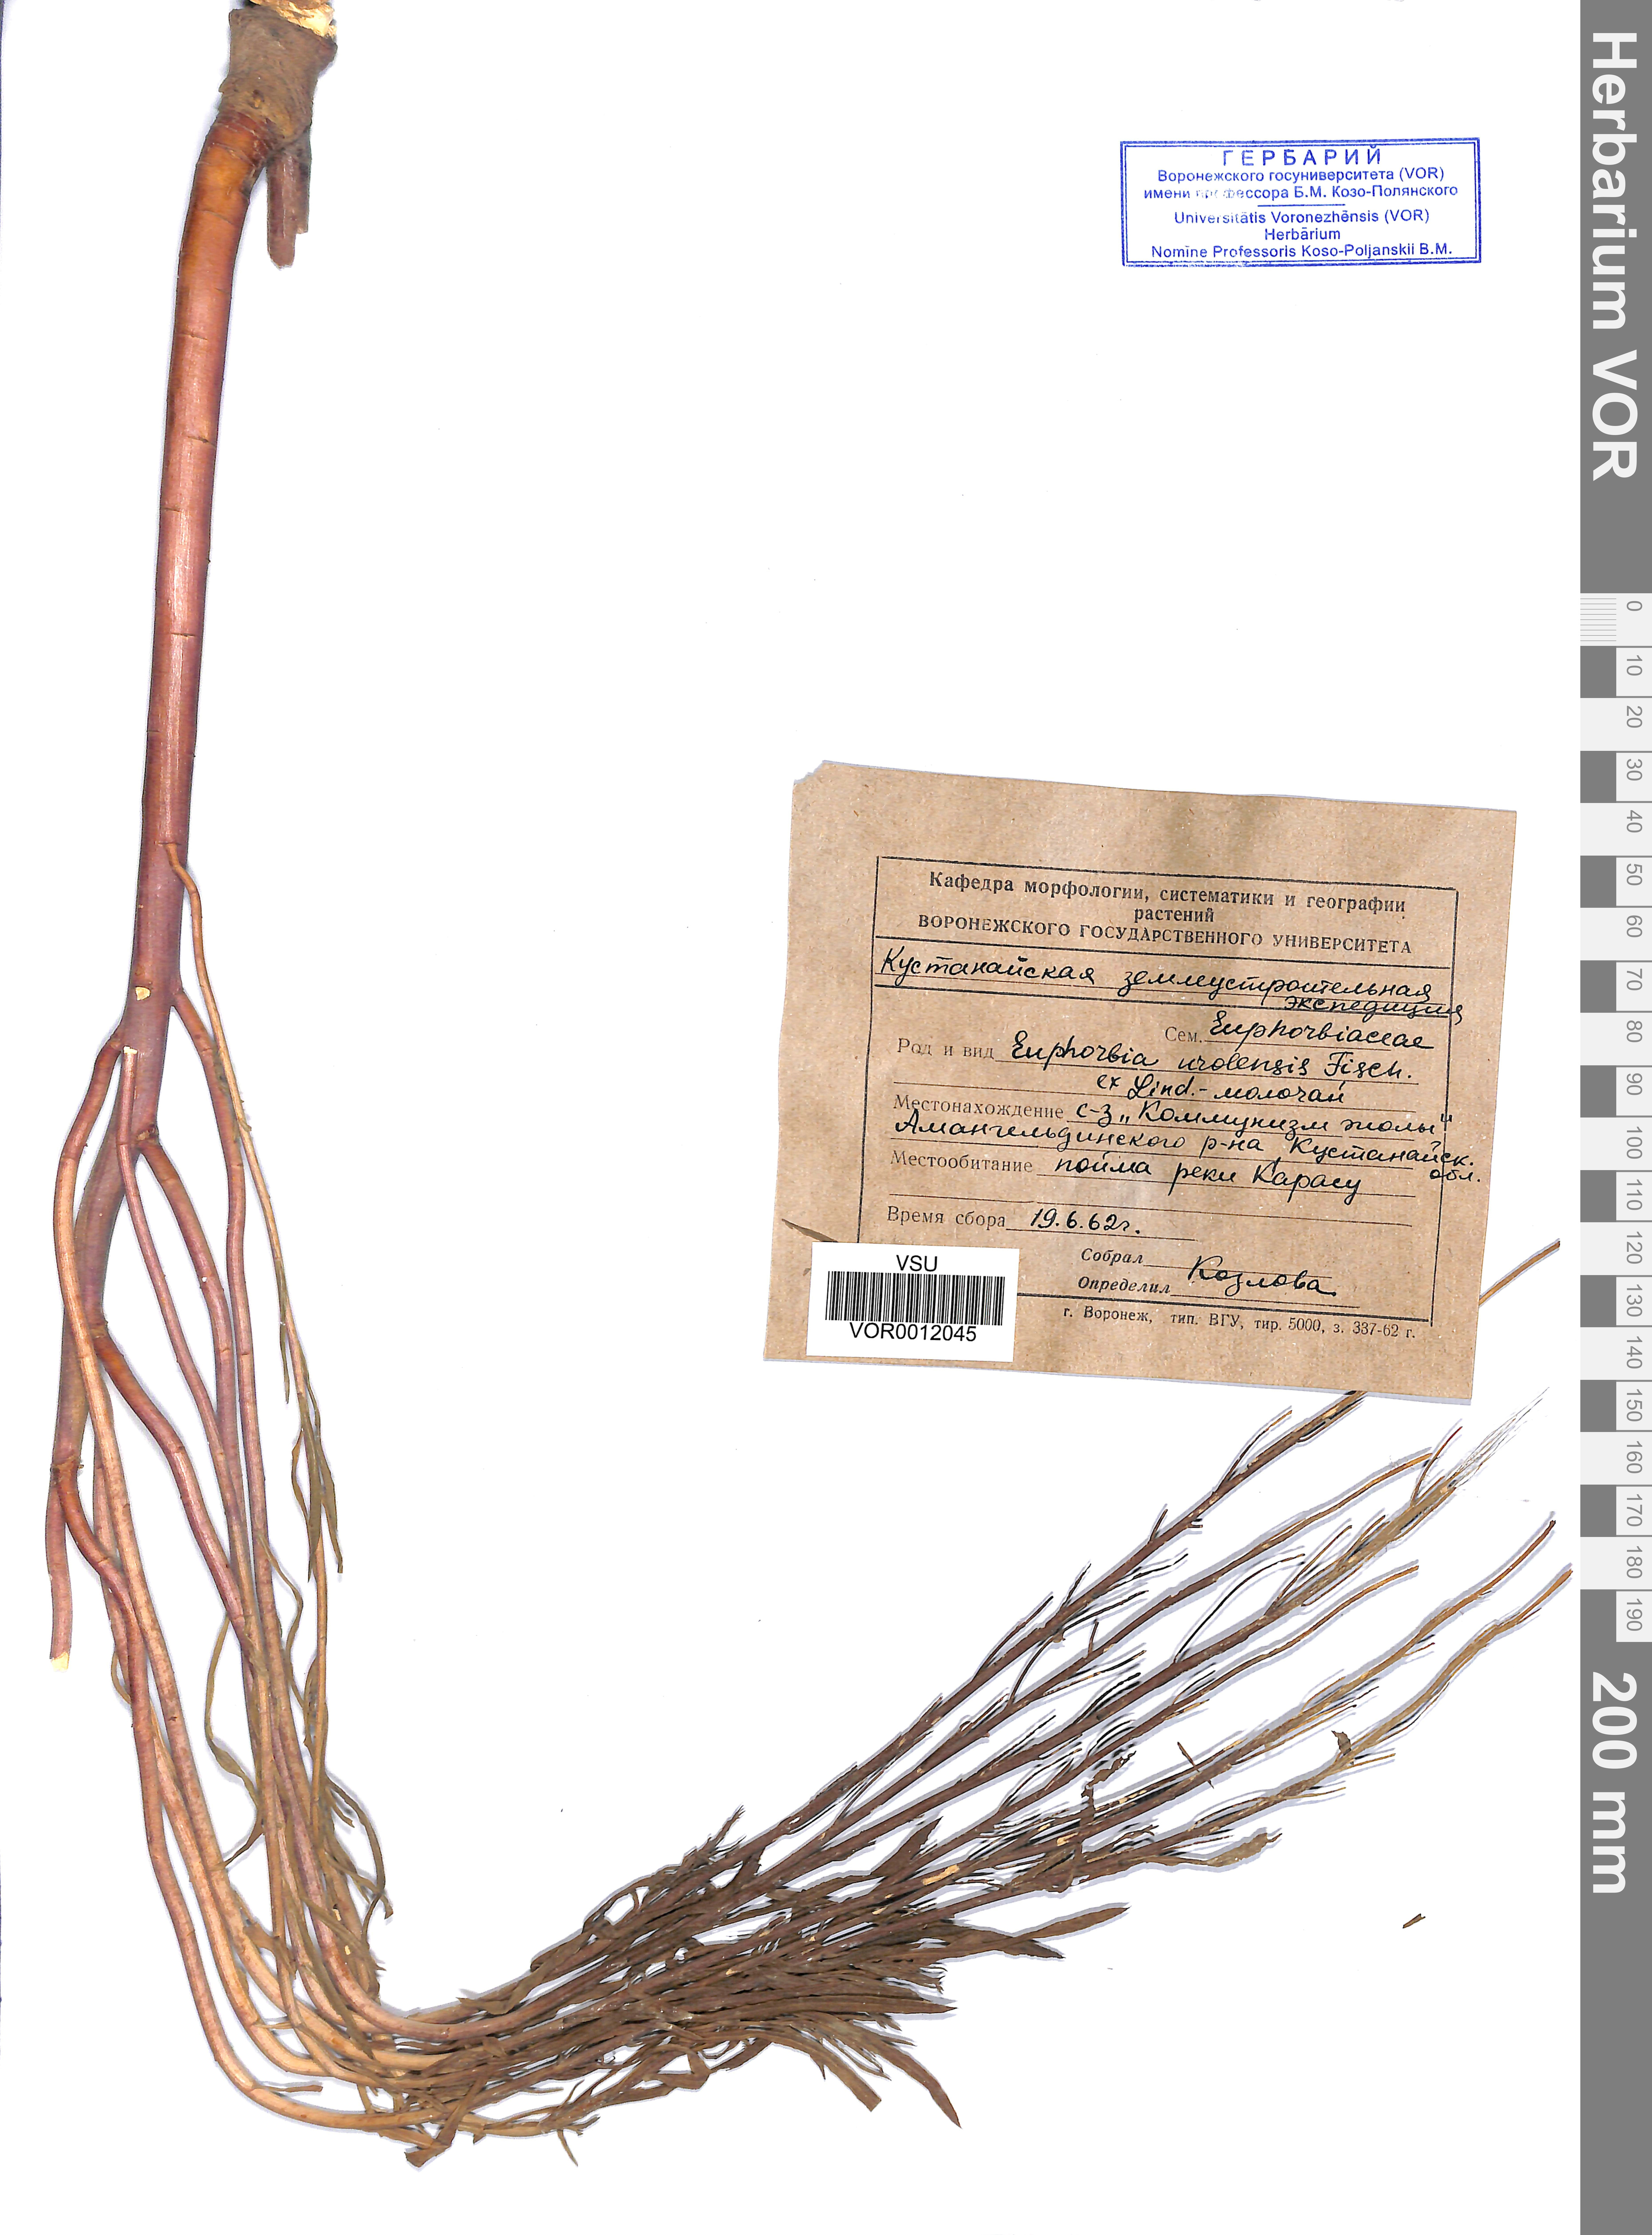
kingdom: Plantae
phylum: Tracheophyta
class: Magnoliopsida
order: Malpighiales
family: Euphorbiaceae
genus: Euphorbia
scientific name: Euphorbia uralensis
